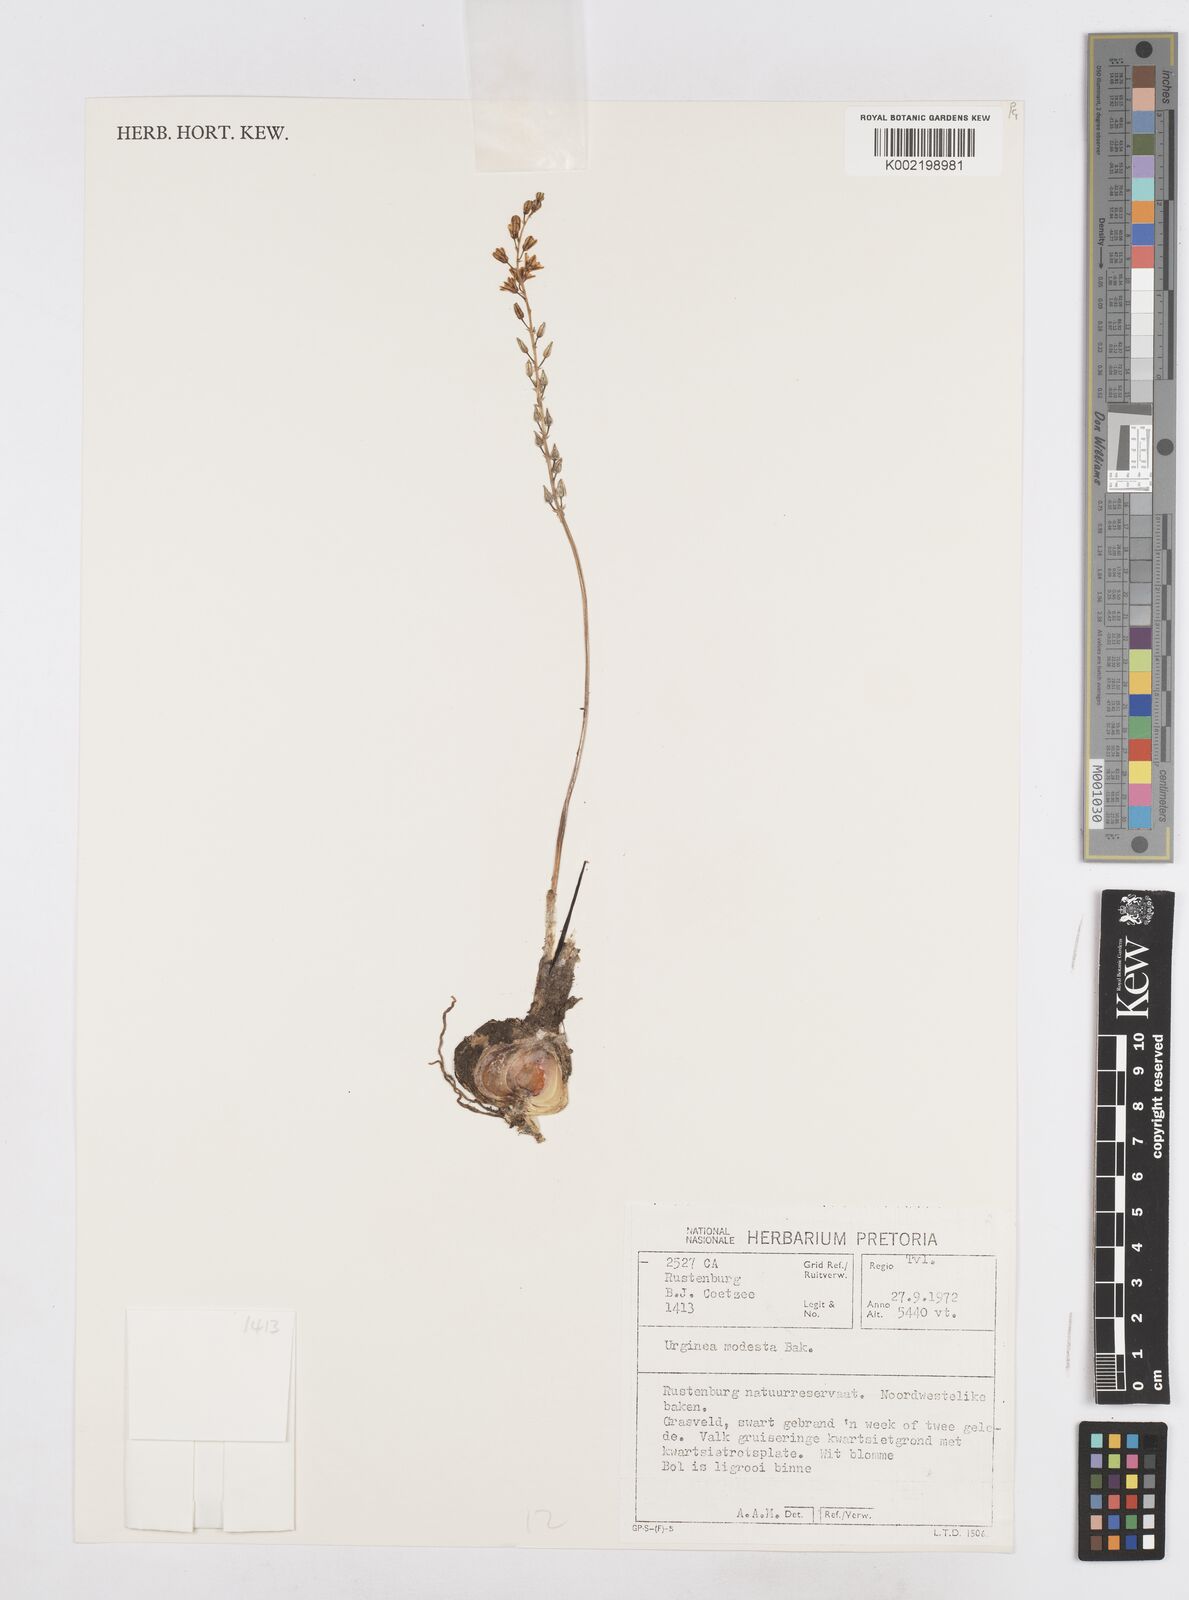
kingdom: Plantae
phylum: Tracheophyta
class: Liliopsida
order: Asparagales
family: Asparagaceae
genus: Drimia
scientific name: Drimia modesta
